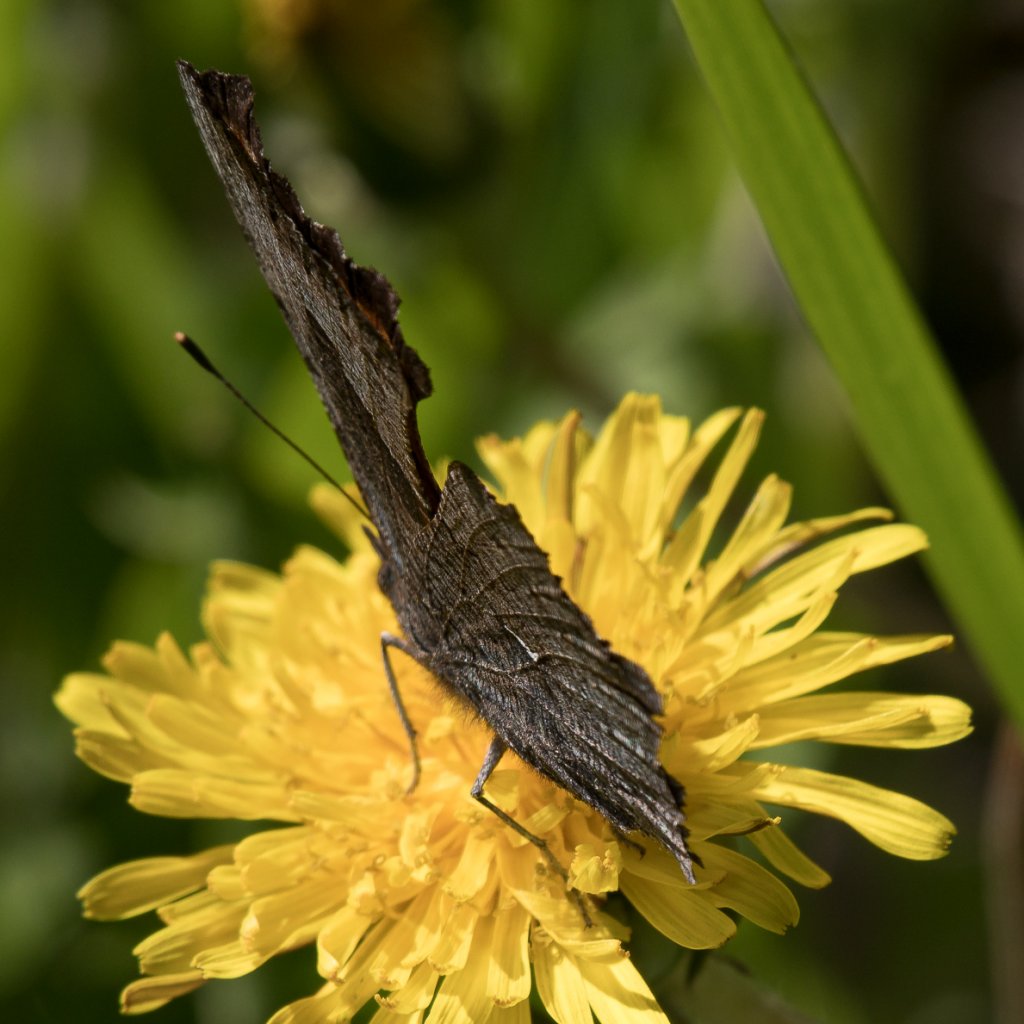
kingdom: Animalia
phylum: Arthropoda
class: Insecta
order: Lepidoptera
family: Nymphalidae
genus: Polygonia
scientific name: Polygonia progne
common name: Gray Comma
